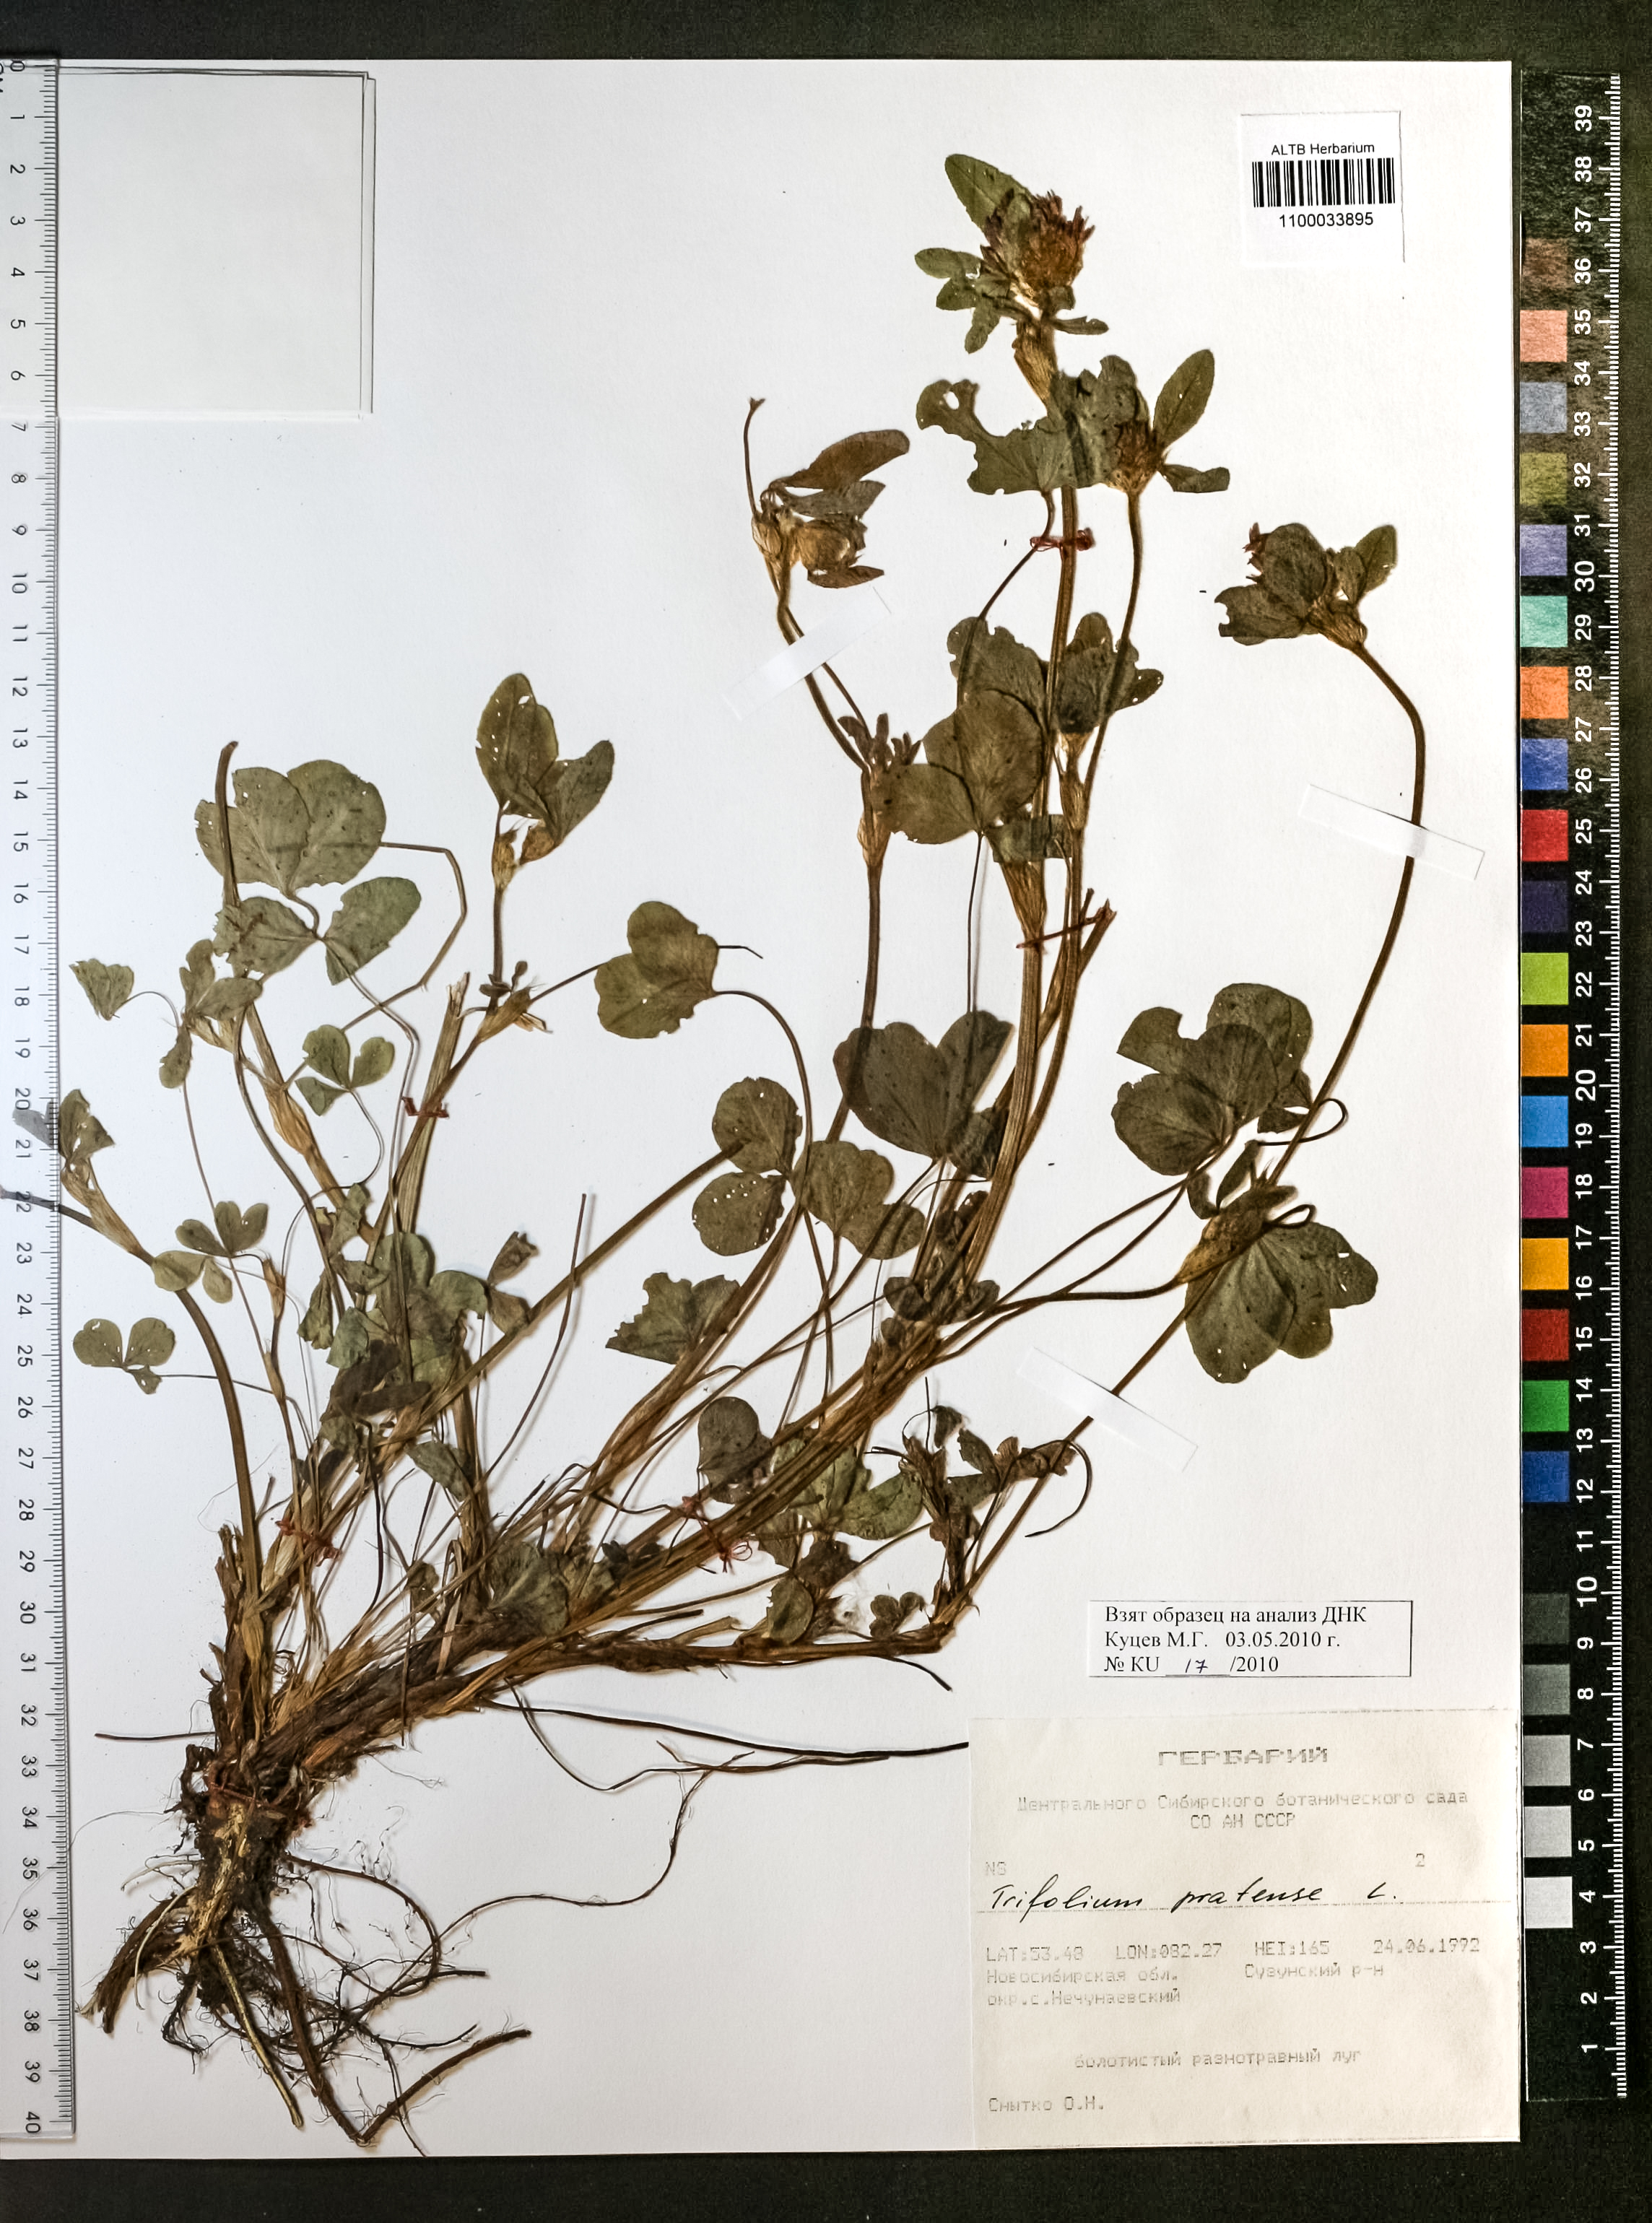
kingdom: Plantae
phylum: Tracheophyta
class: Magnoliopsida
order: Fabales
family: Fabaceae
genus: Trifolium
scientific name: Trifolium pratense
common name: Red clover
